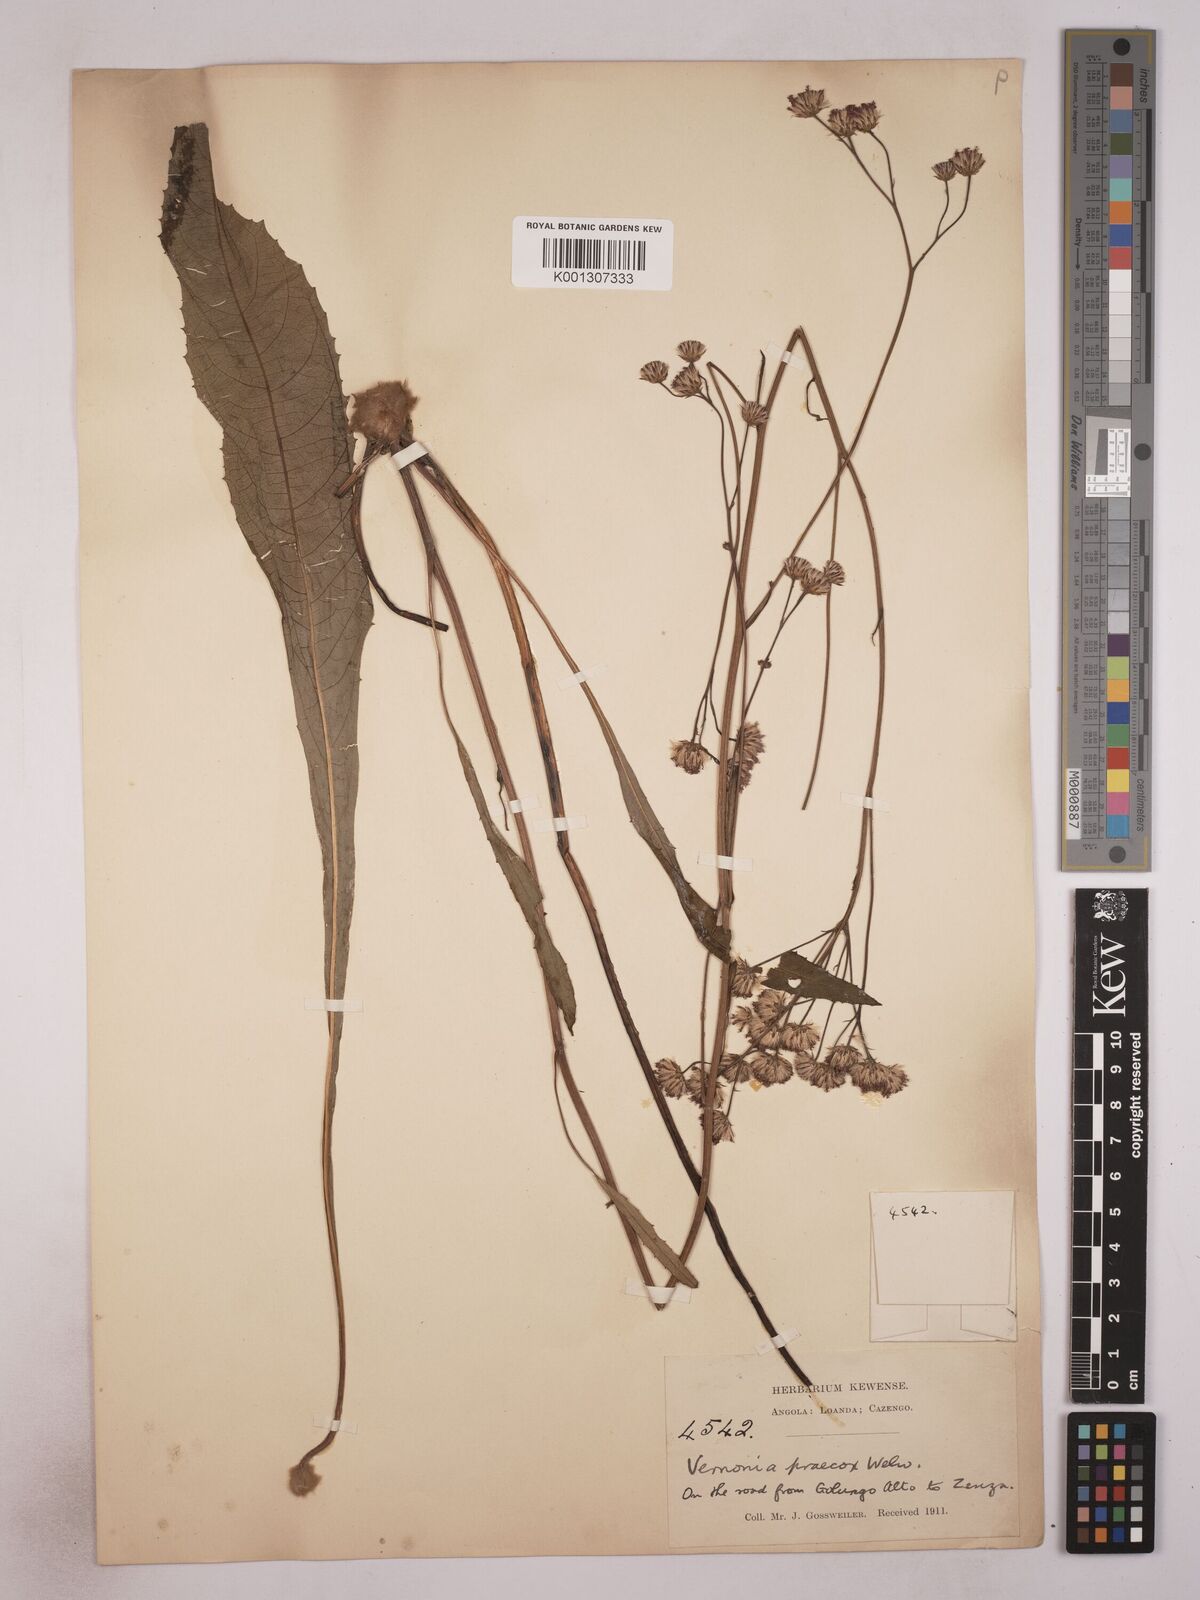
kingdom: Plantae
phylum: Tracheophyta
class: Magnoliopsida
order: Asterales
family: Asteraceae
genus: Vernonella
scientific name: Vernonella praecox
